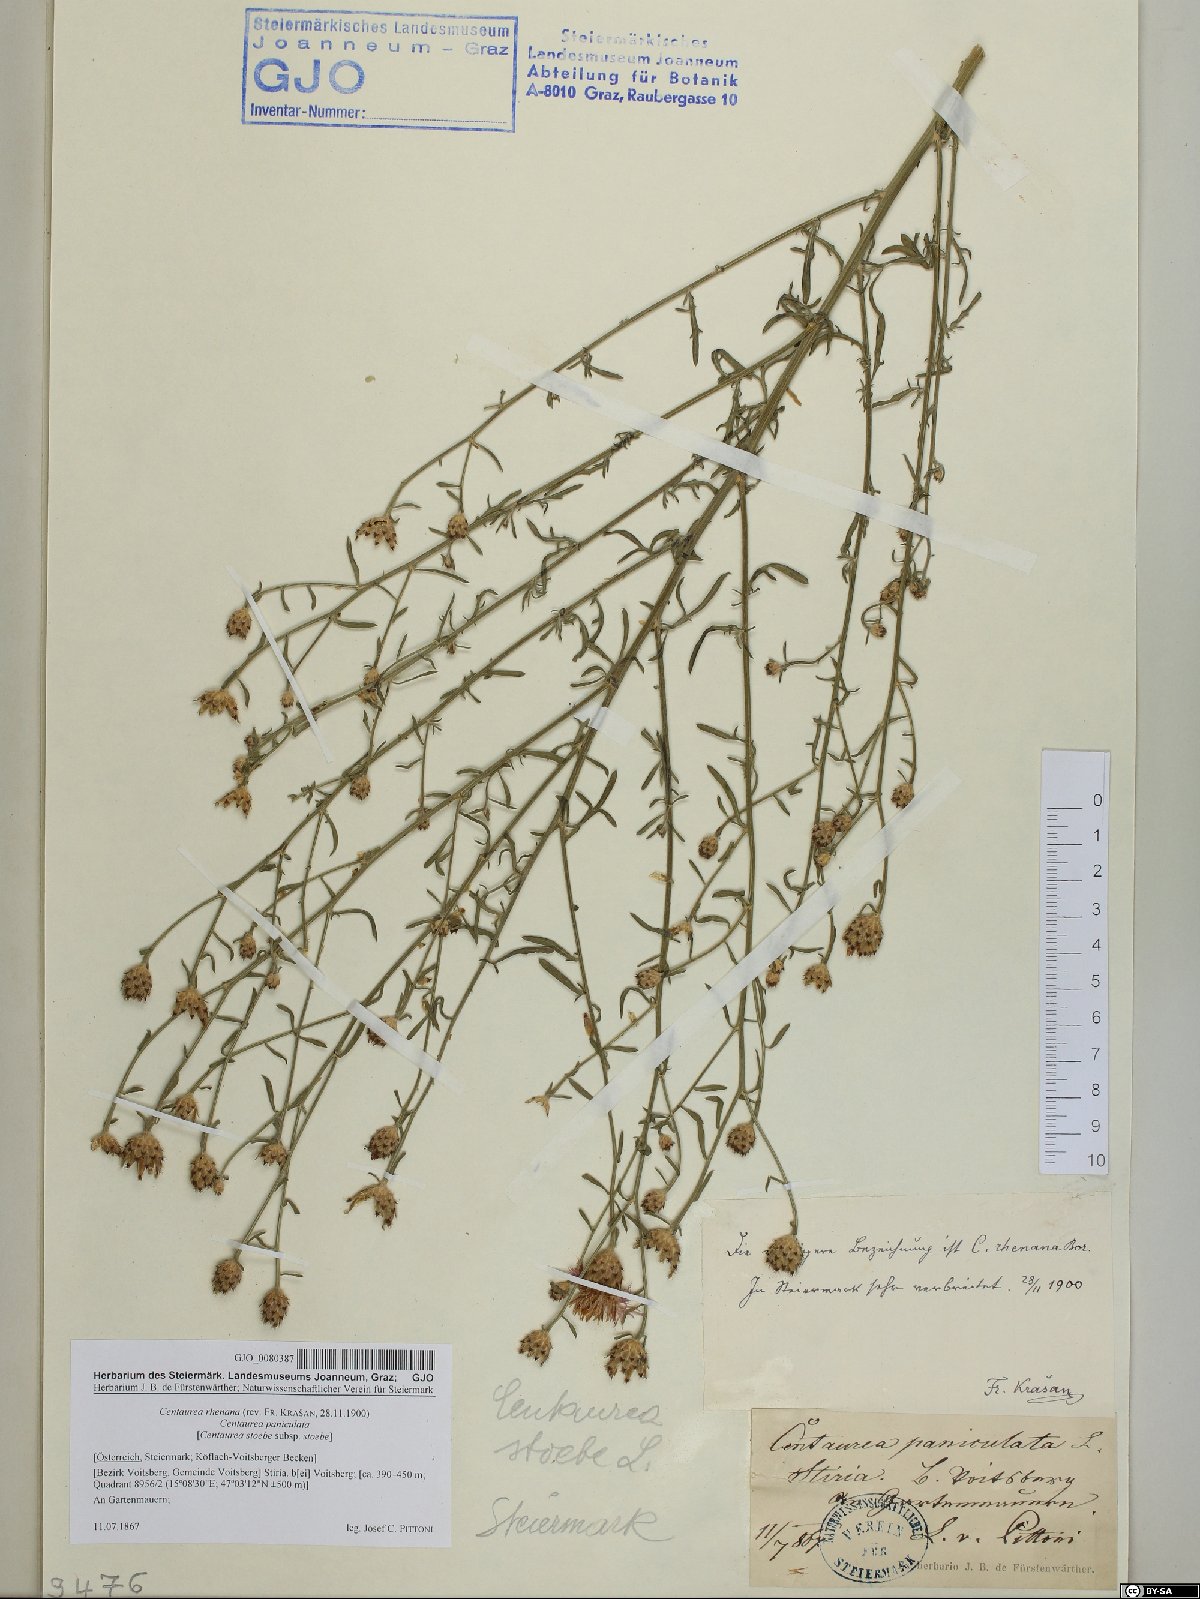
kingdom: Plantae
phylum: Tracheophyta
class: Magnoliopsida
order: Asterales
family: Asteraceae
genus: Centaurea
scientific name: Centaurea stoebe
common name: Spotted knapweed
